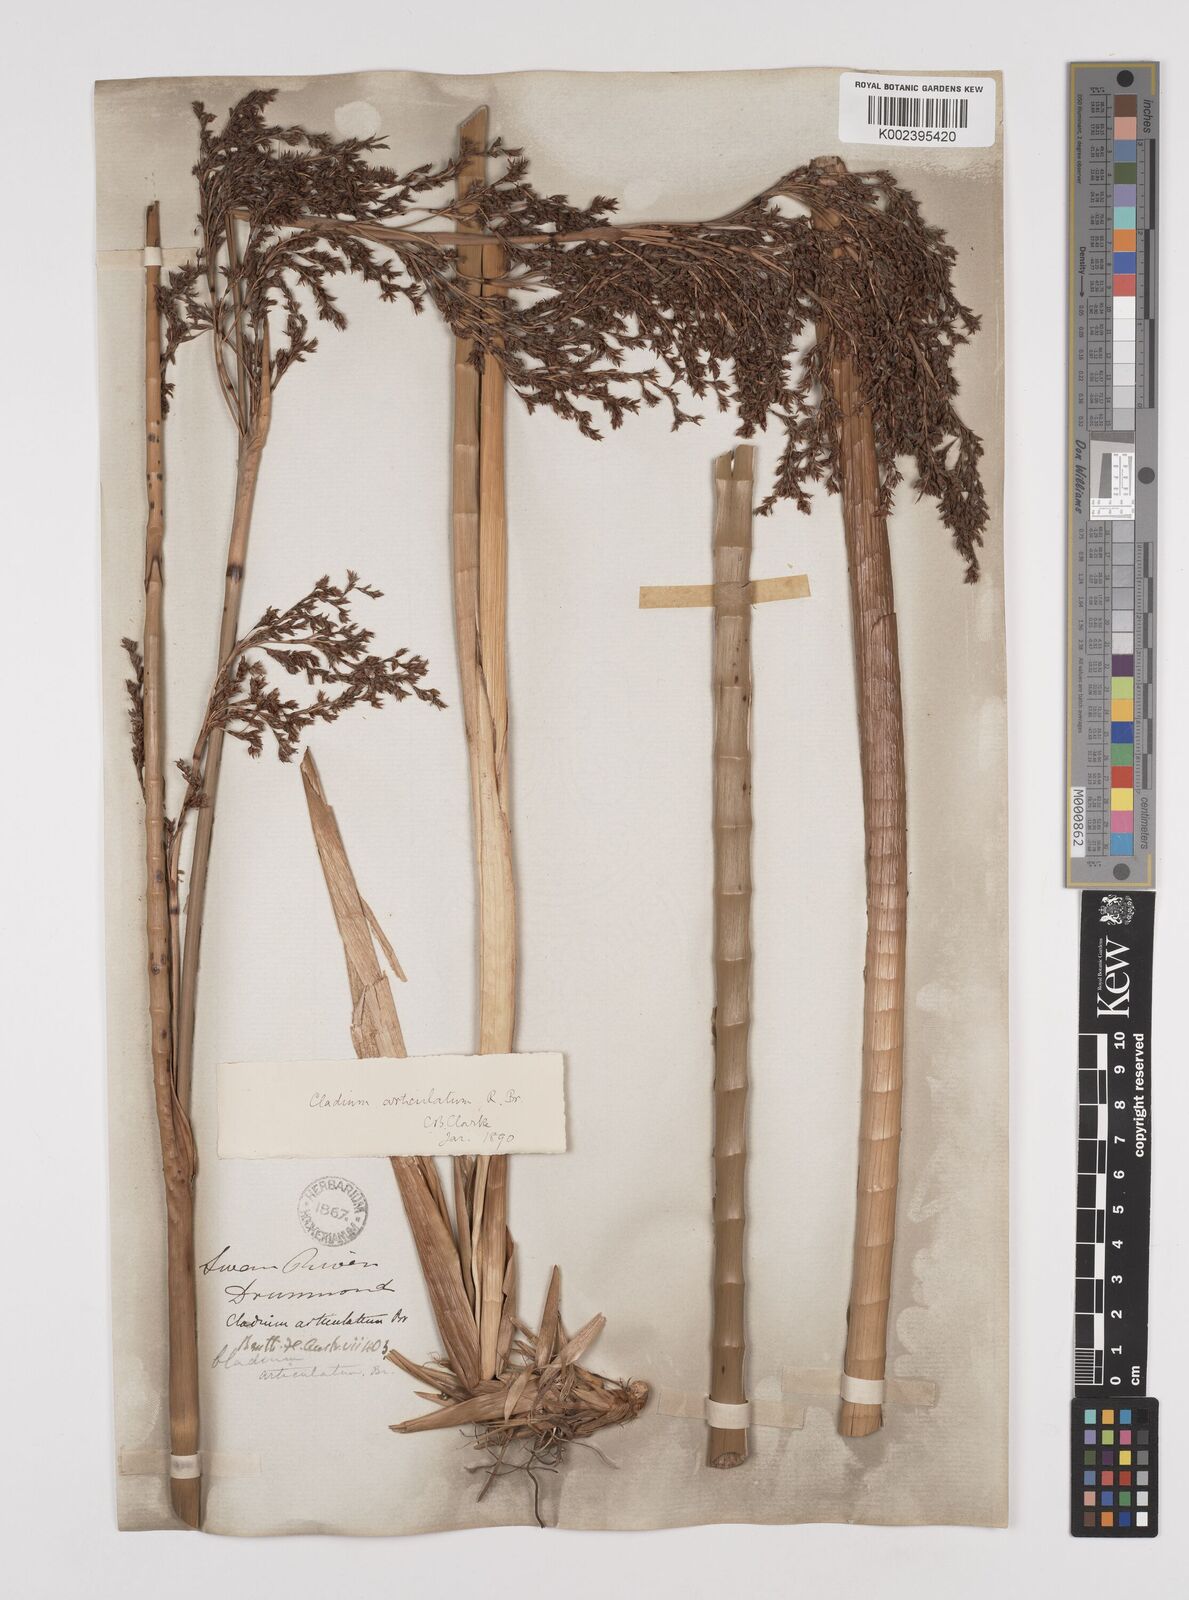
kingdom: Plantae
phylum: Tracheophyta
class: Liliopsida
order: Poales
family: Cyperaceae
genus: Machaerina
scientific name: Machaerina articulata
